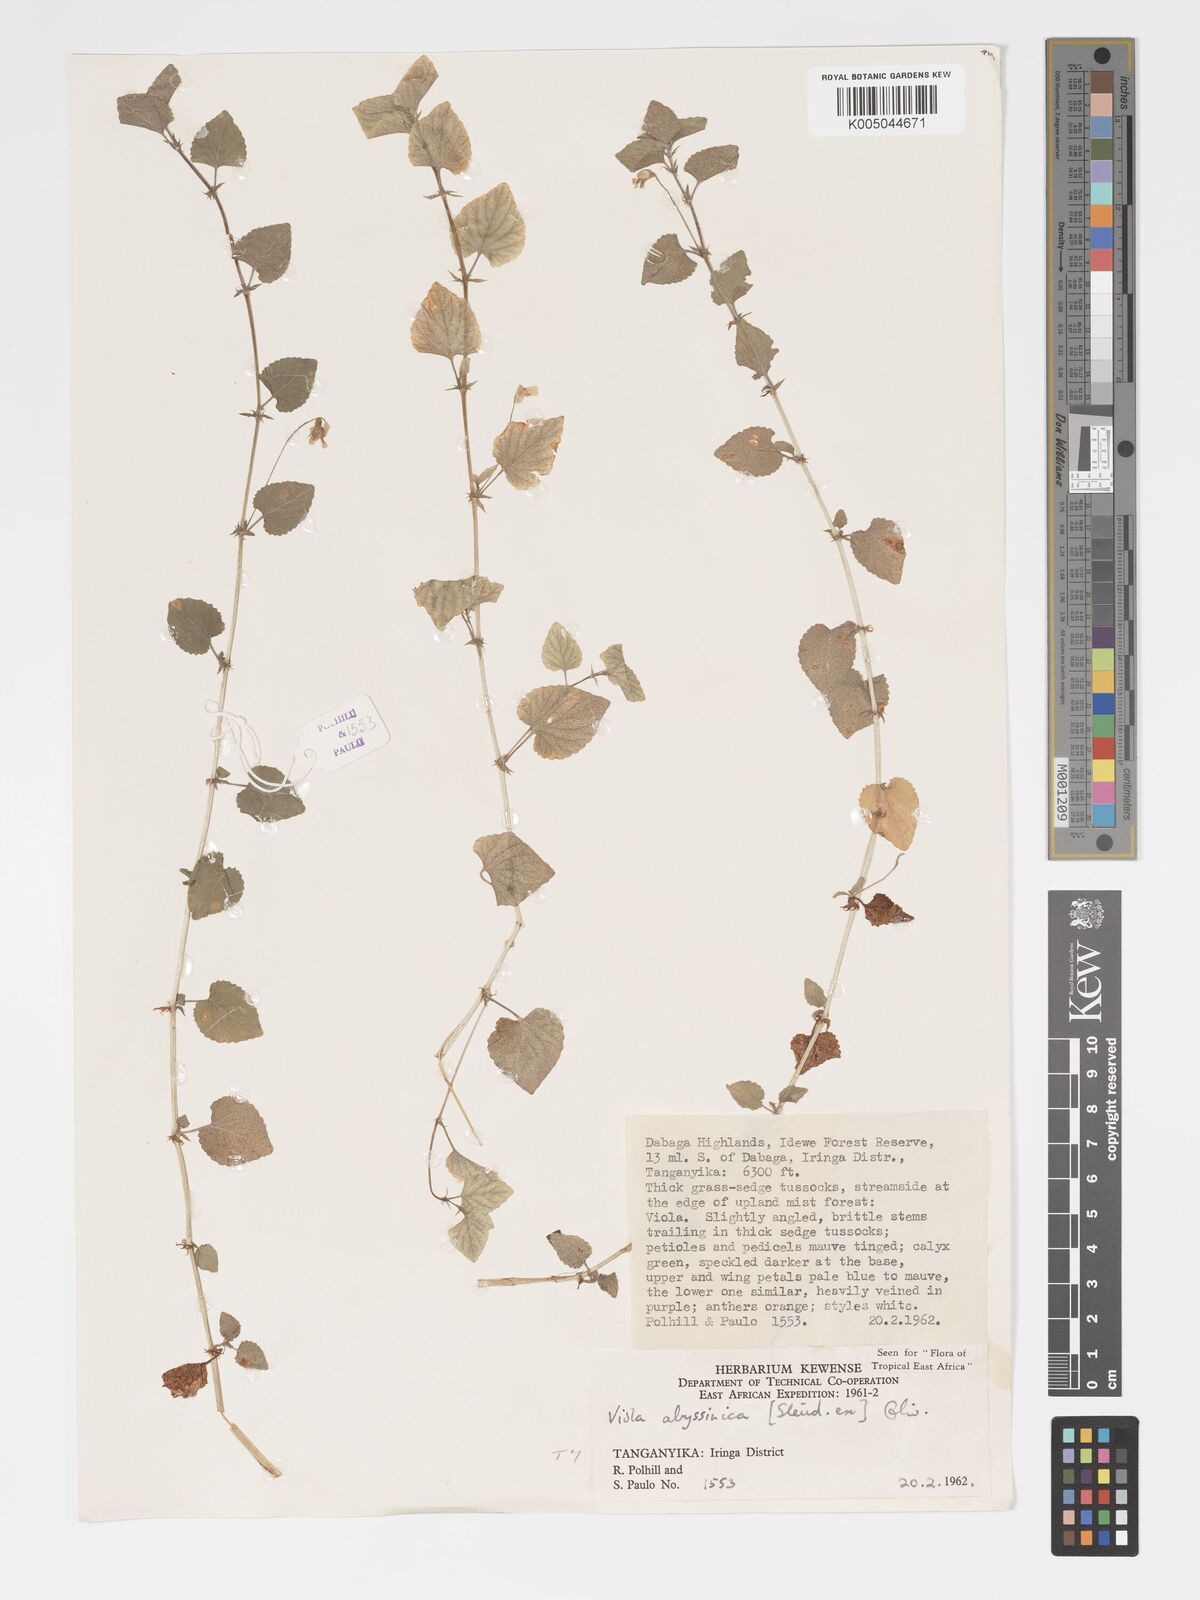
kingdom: Plantae
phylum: Tracheophyta
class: Magnoliopsida
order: Malpighiales
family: Violaceae
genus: Viola
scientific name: Viola abyssinica
